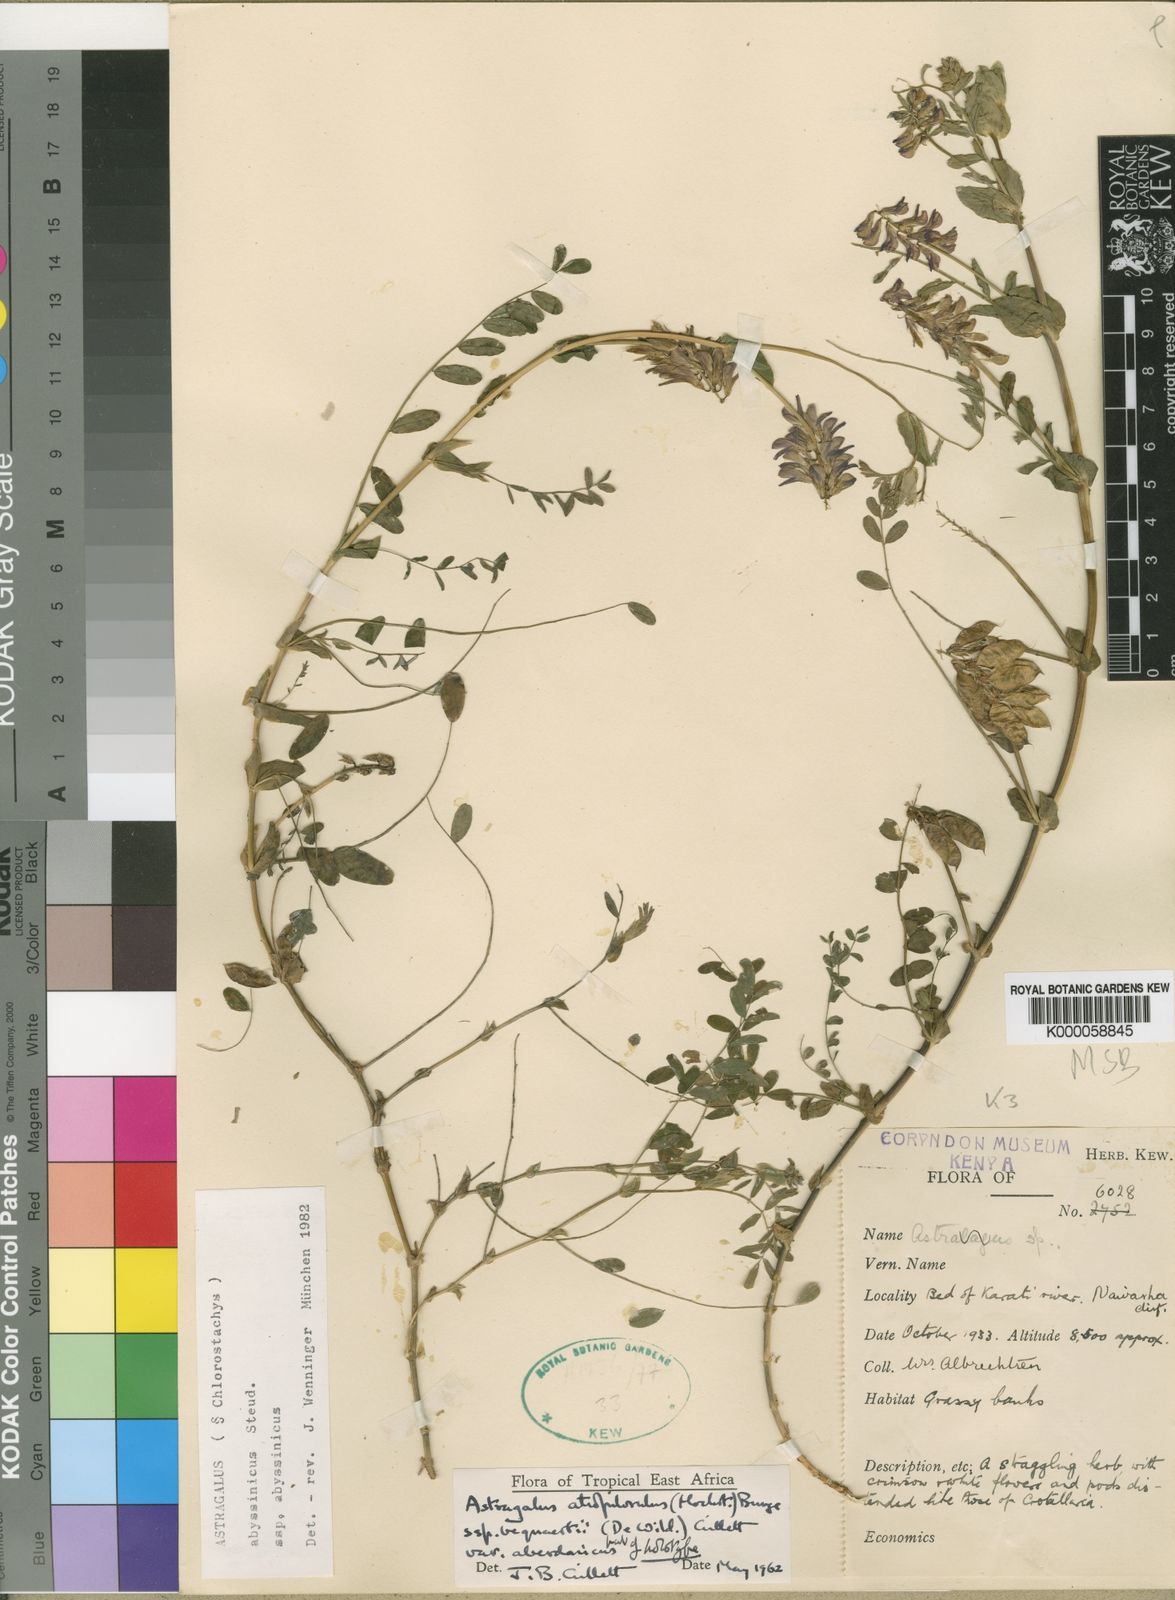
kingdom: Plantae
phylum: Tracheophyta
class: Magnoliopsida
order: Fabales
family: Fabaceae
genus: Astragalus
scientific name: Astragalus atropilosulus
